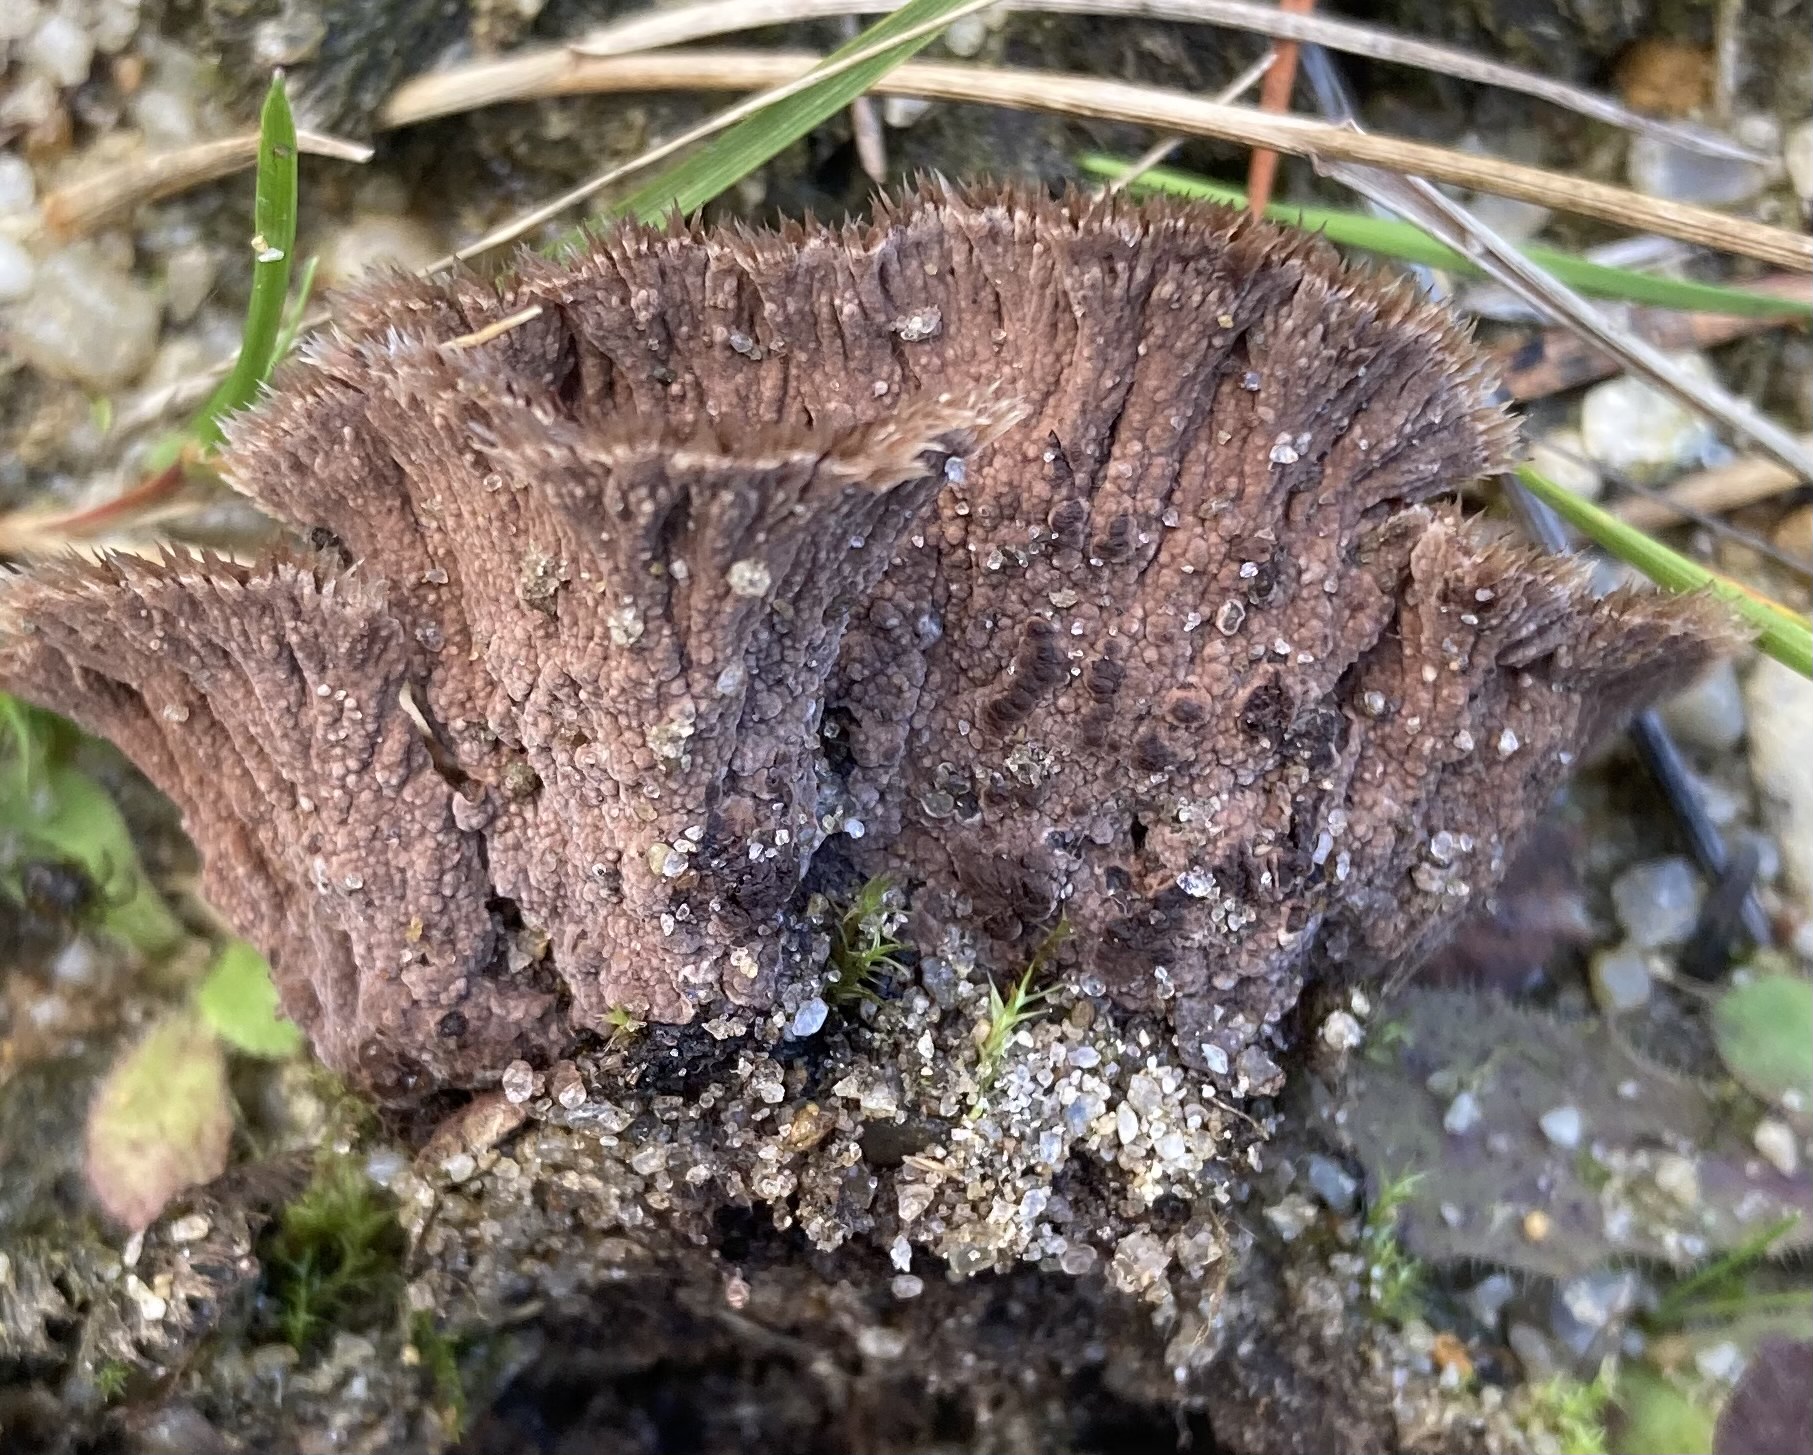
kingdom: Fungi
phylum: Basidiomycota
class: Agaricomycetes
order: Thelephorales
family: Thelephoraceae
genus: Thelephora
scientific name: Thelephora terrestris
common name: fliget frynsesvamp
